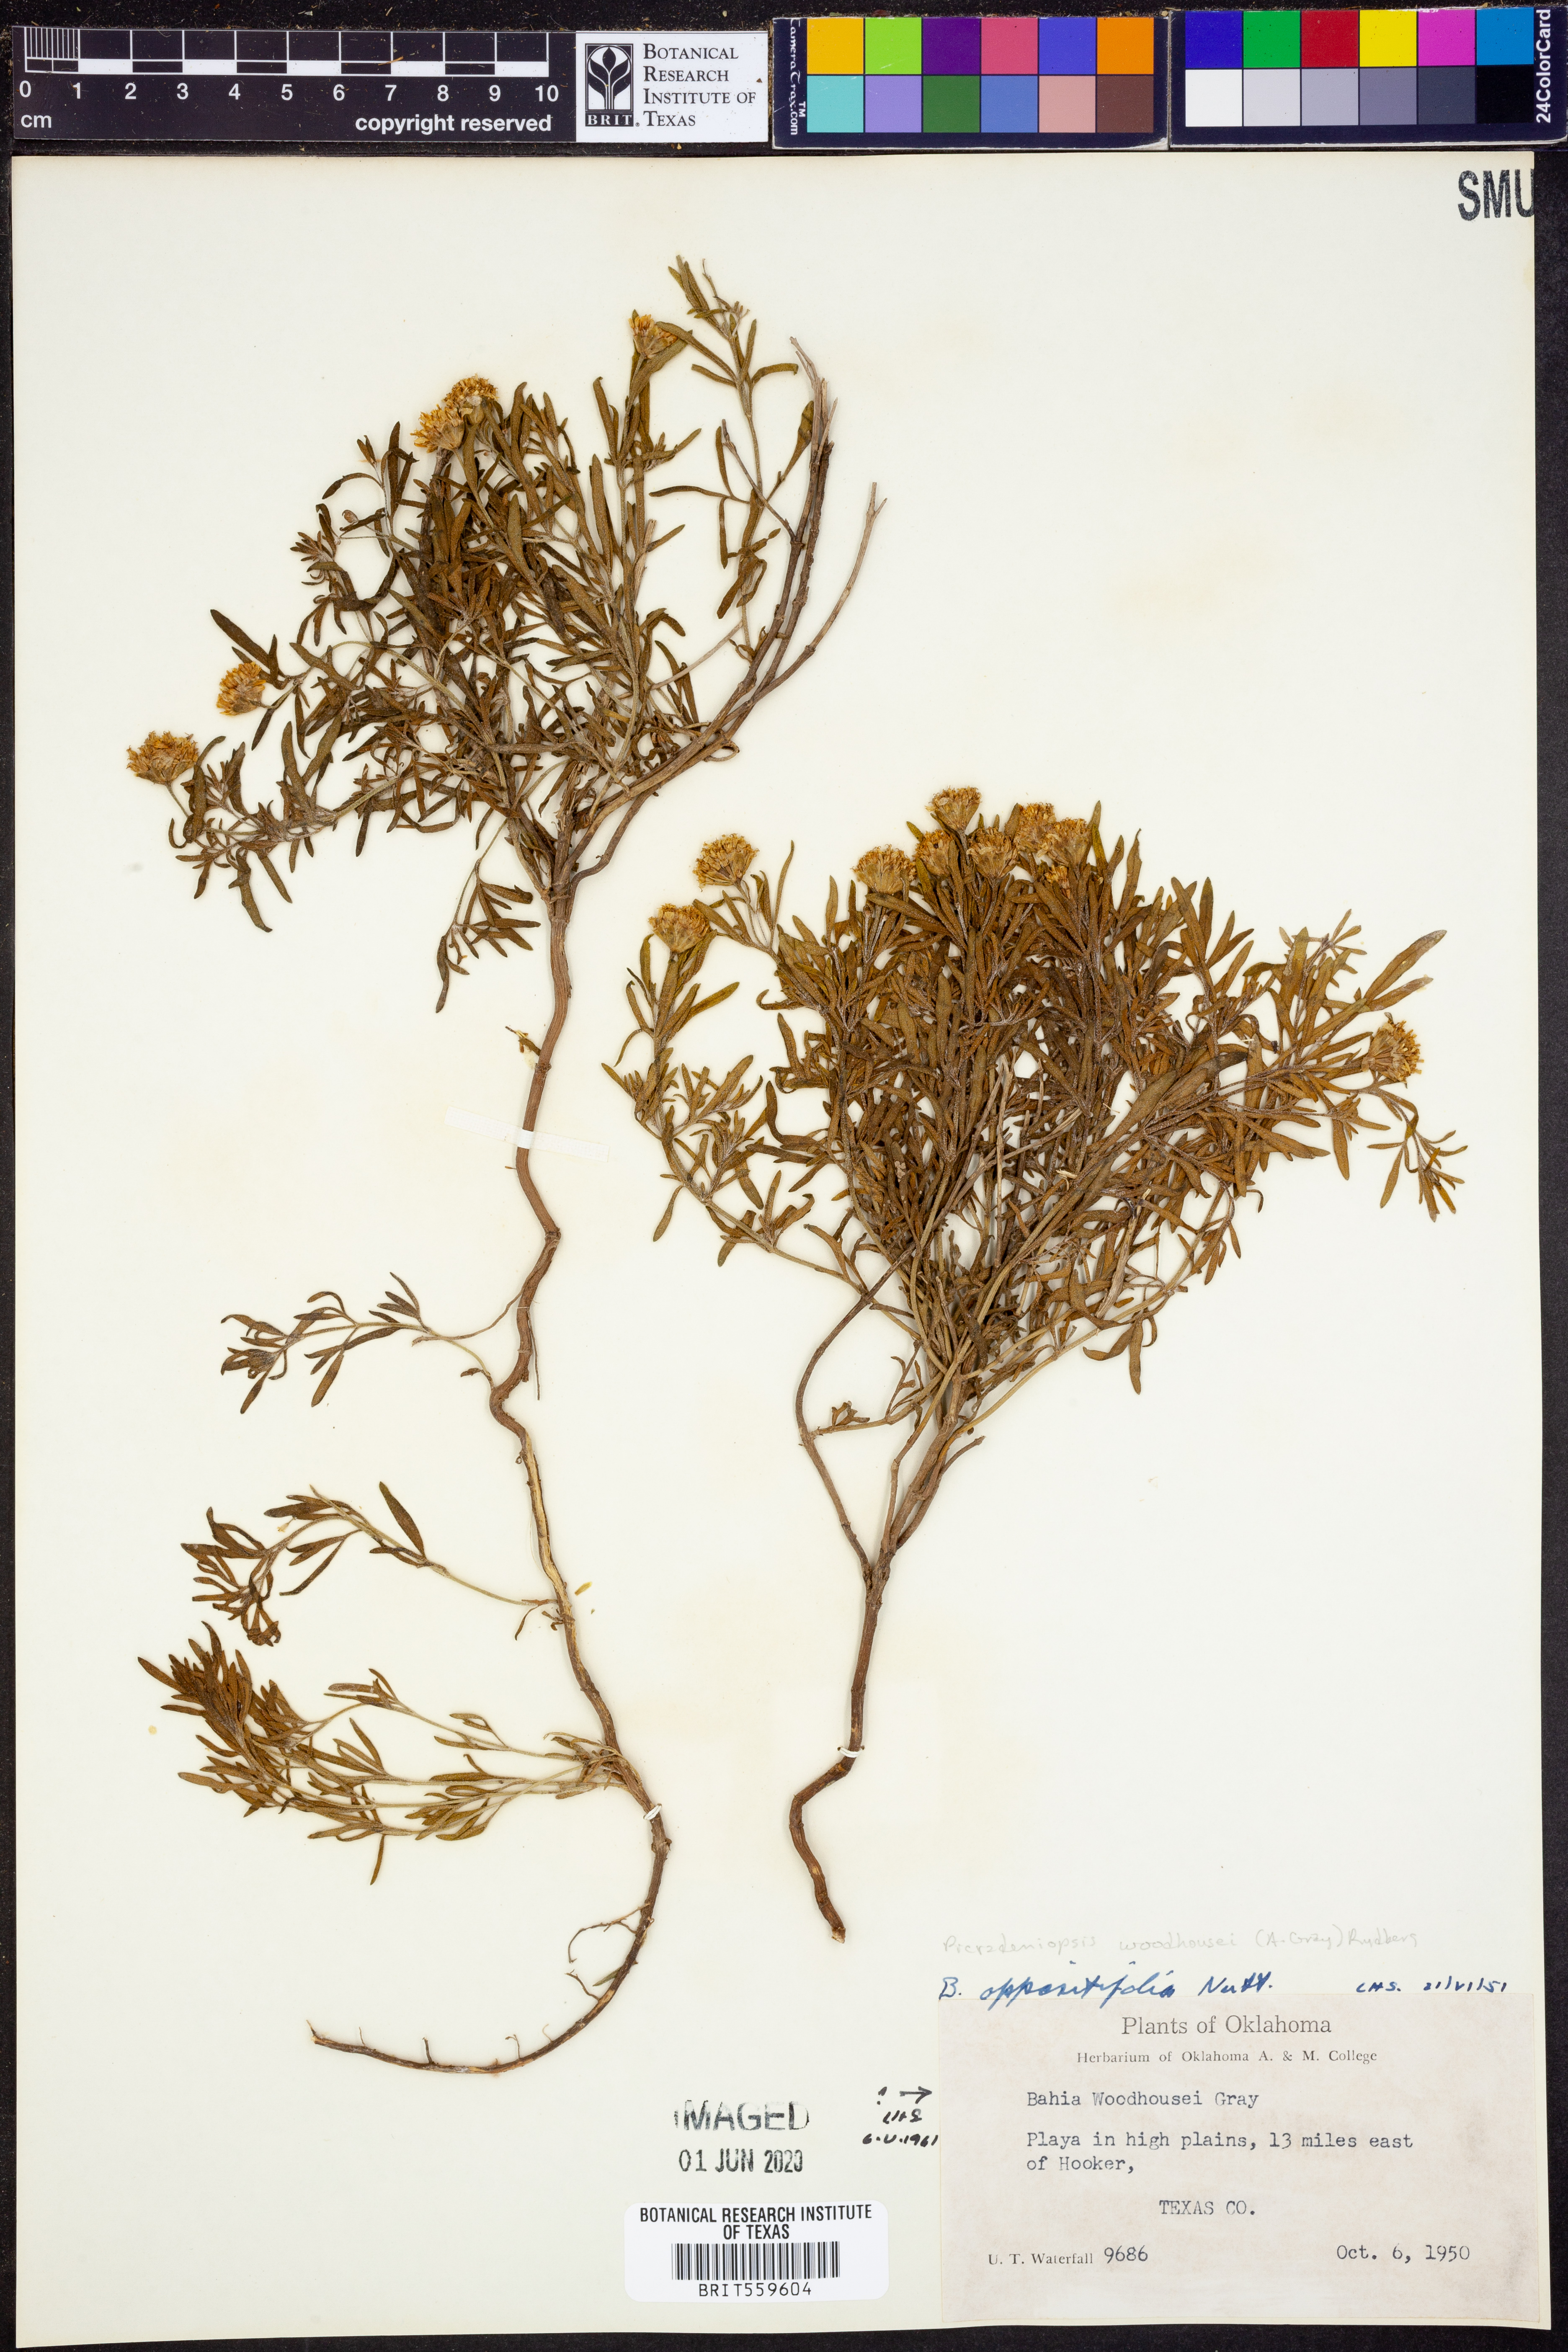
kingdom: Plantae
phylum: Tracheophyta
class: Magnoliopsida
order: Asterales
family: Asteraceae
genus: Picradeniopsis
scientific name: Picradeniopsis woodhousei
